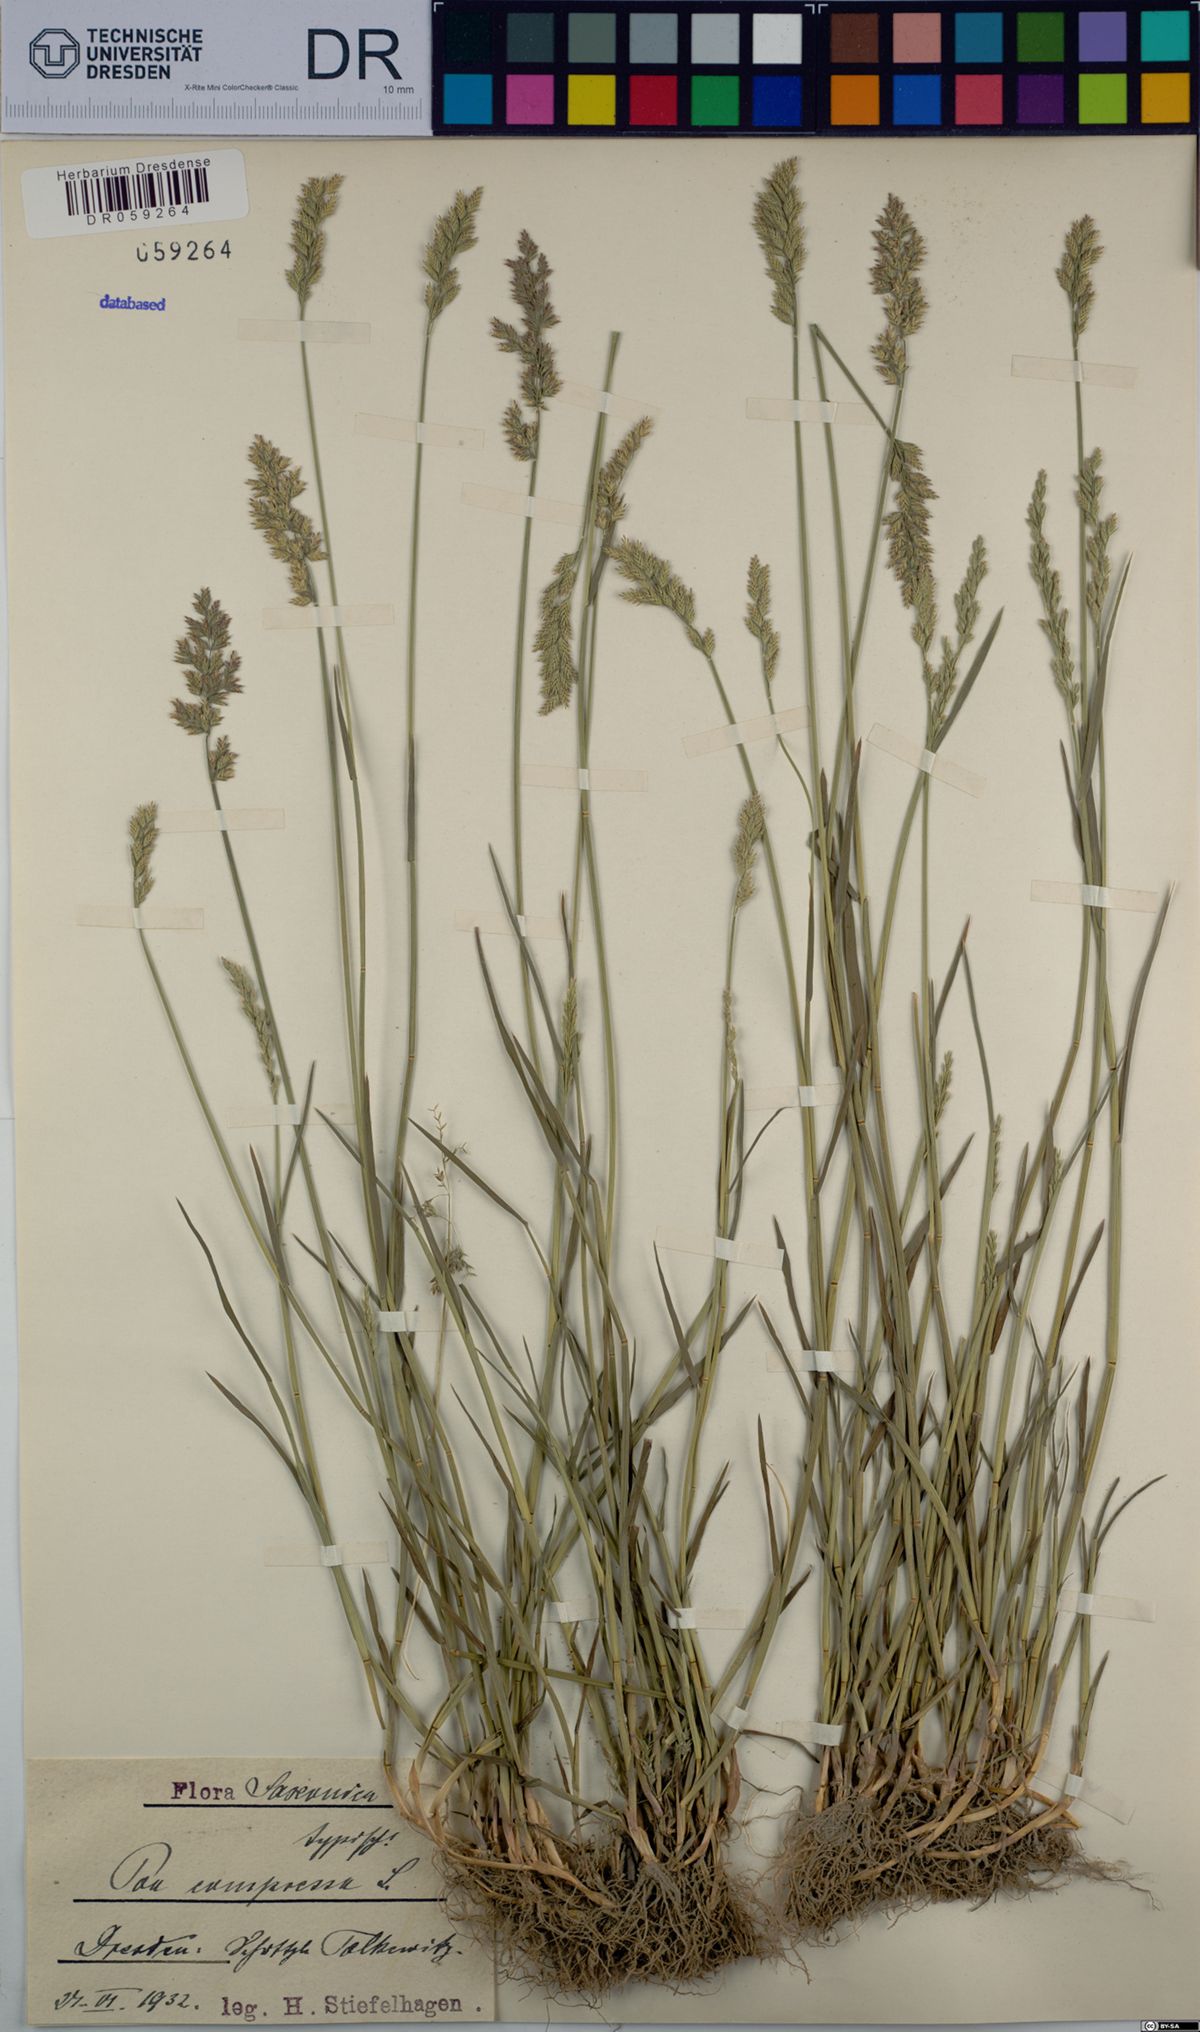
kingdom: Plantae
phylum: Tracheophyta
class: Liliopsida
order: Poales
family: Poaceae
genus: Poa
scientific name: Poa compressa
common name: Canada bluegrass
